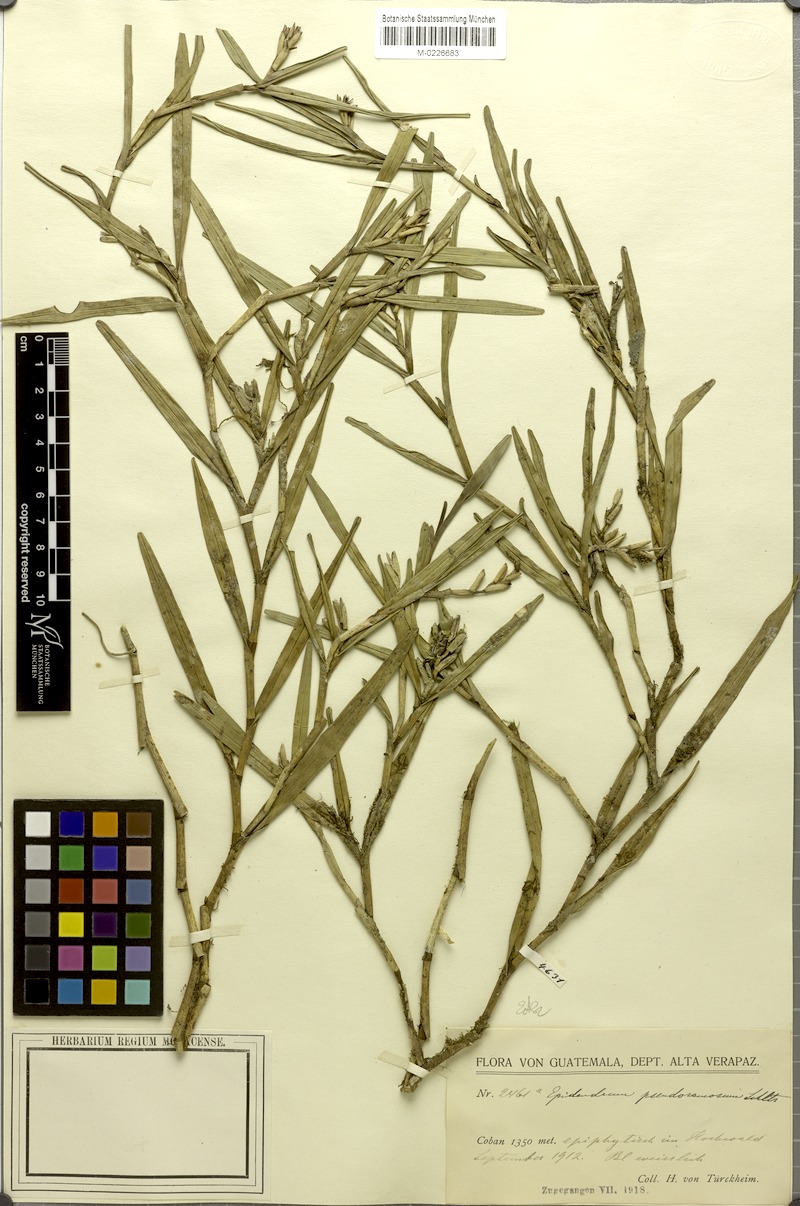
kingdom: Plantae
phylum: Tracheophyta
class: Liliopsida
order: Asparagales
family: Orchidaceae
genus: Epidendrum
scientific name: Epidendrum pseudoramosum
